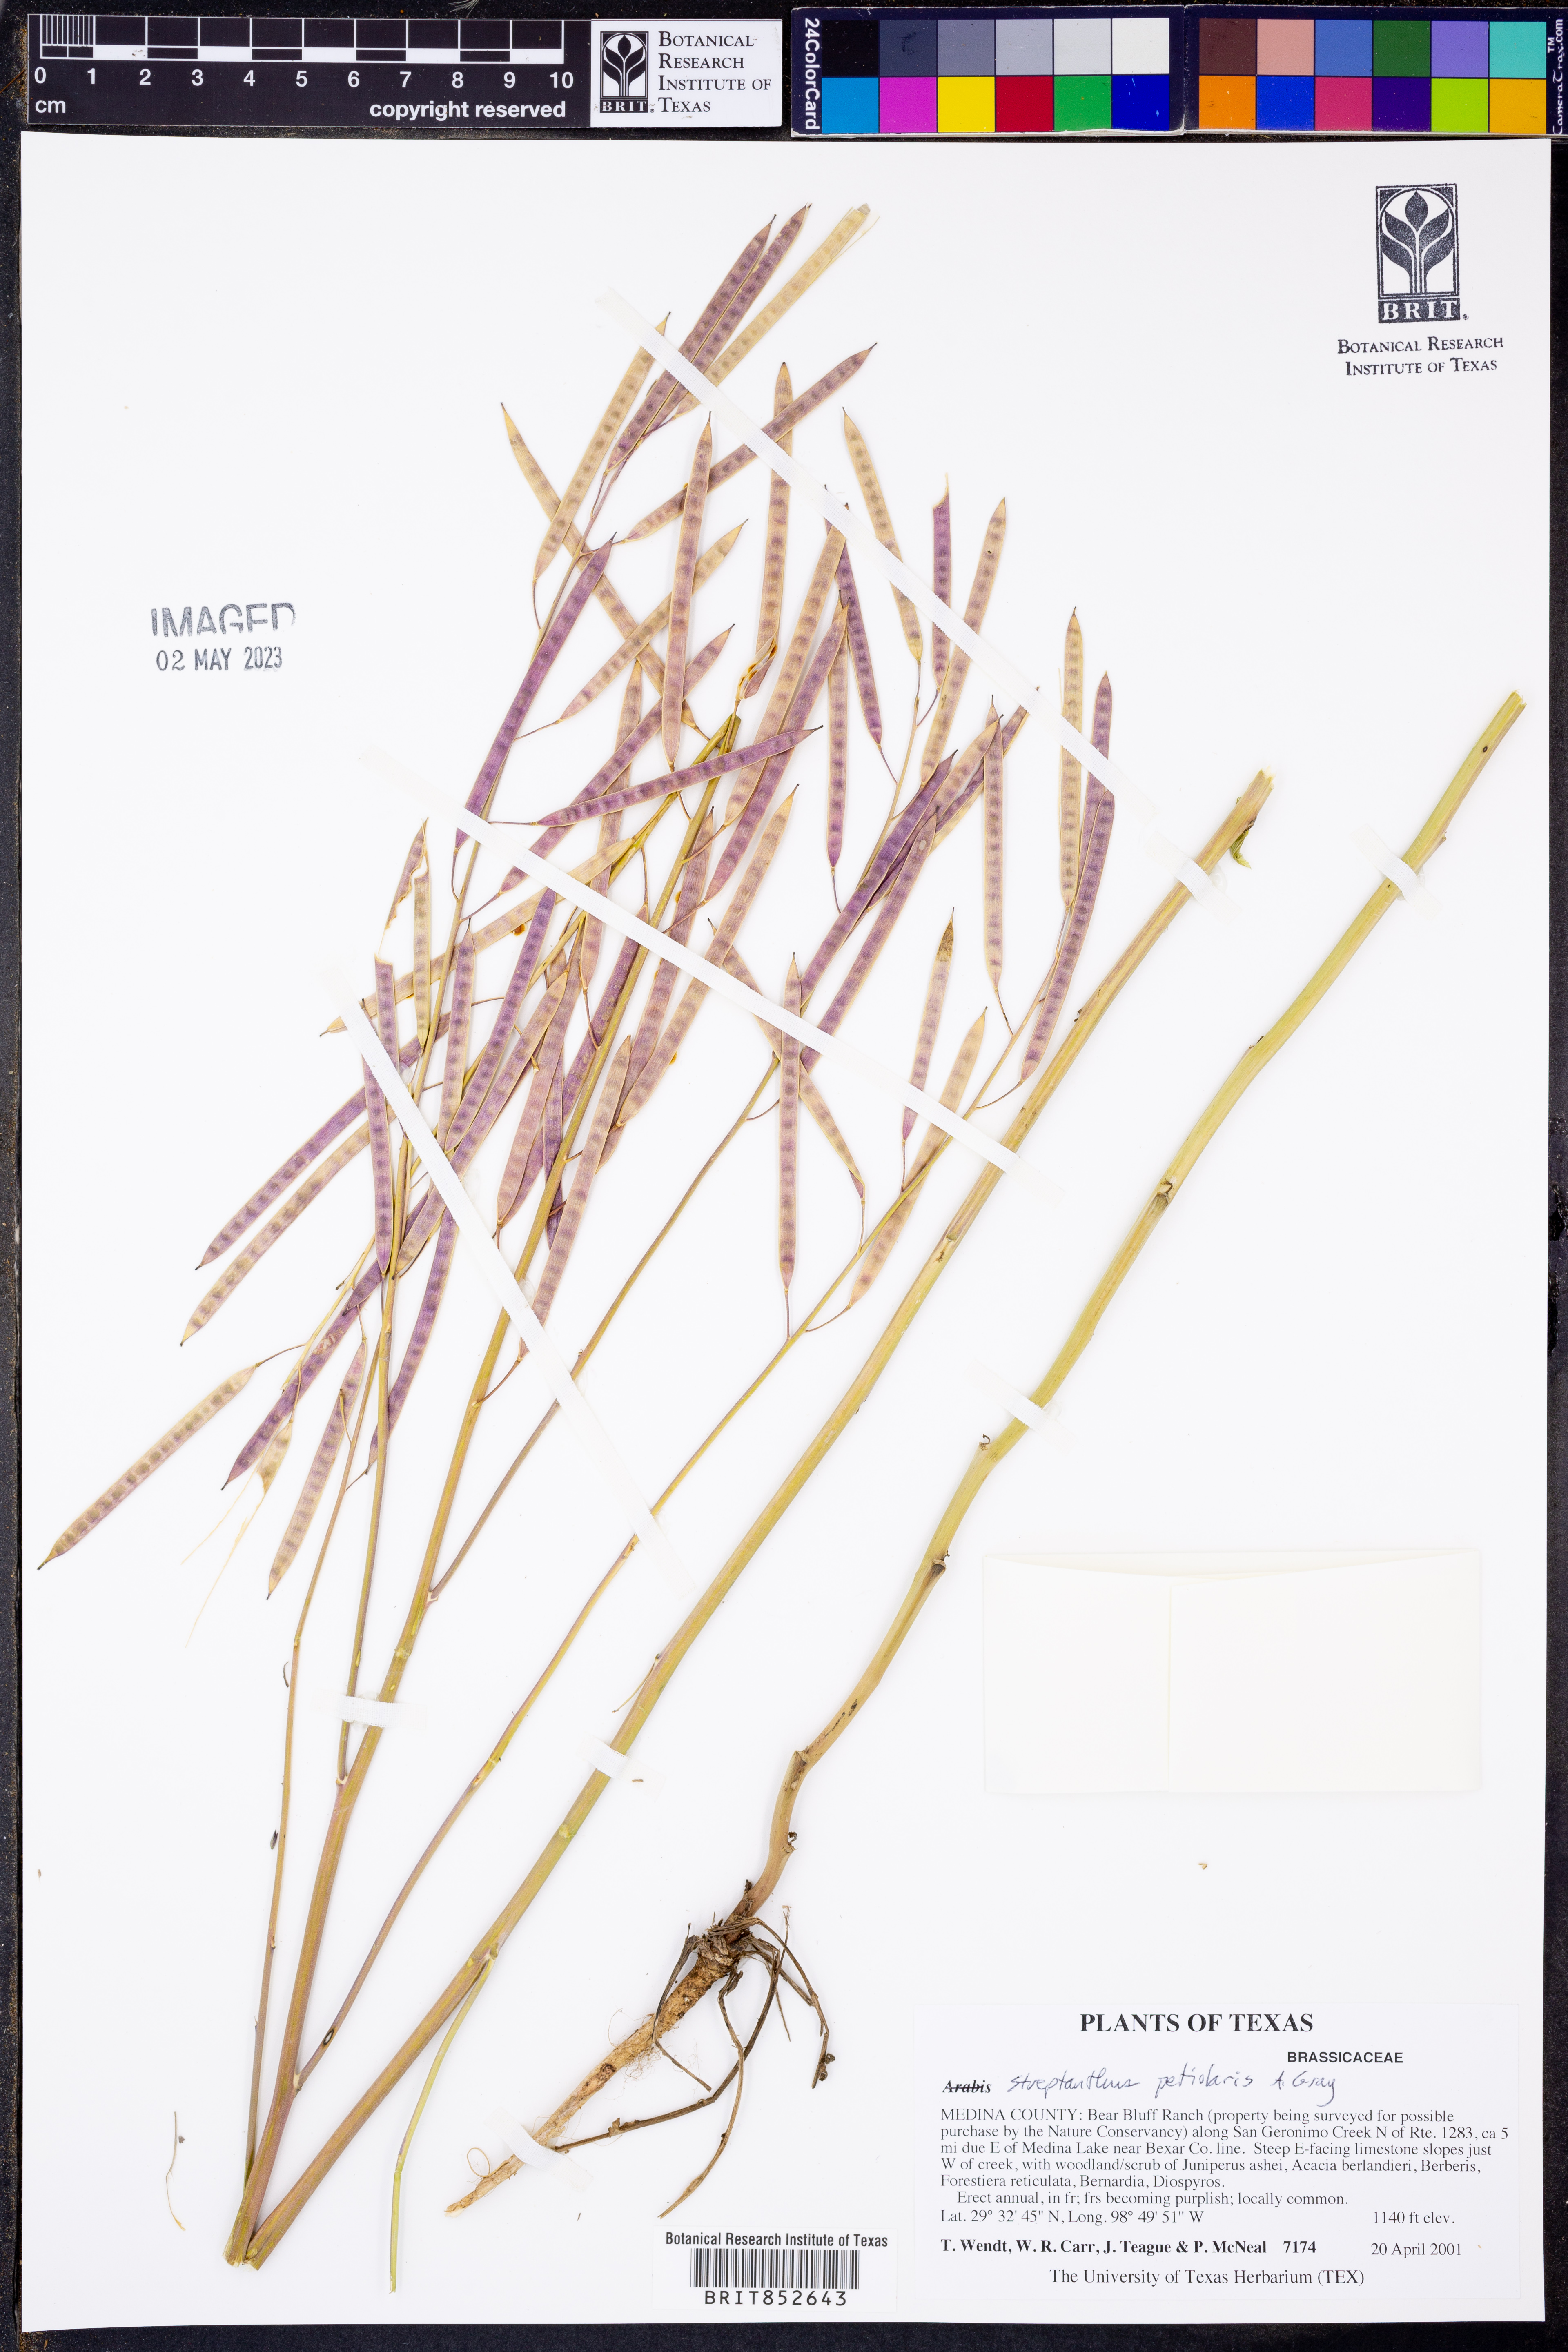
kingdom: Plantae
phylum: Tracheophyta
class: Magnoliopsida
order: Brassicales
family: Brassicaceae
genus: Streptanthus
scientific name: Streptanthus petiolaris
